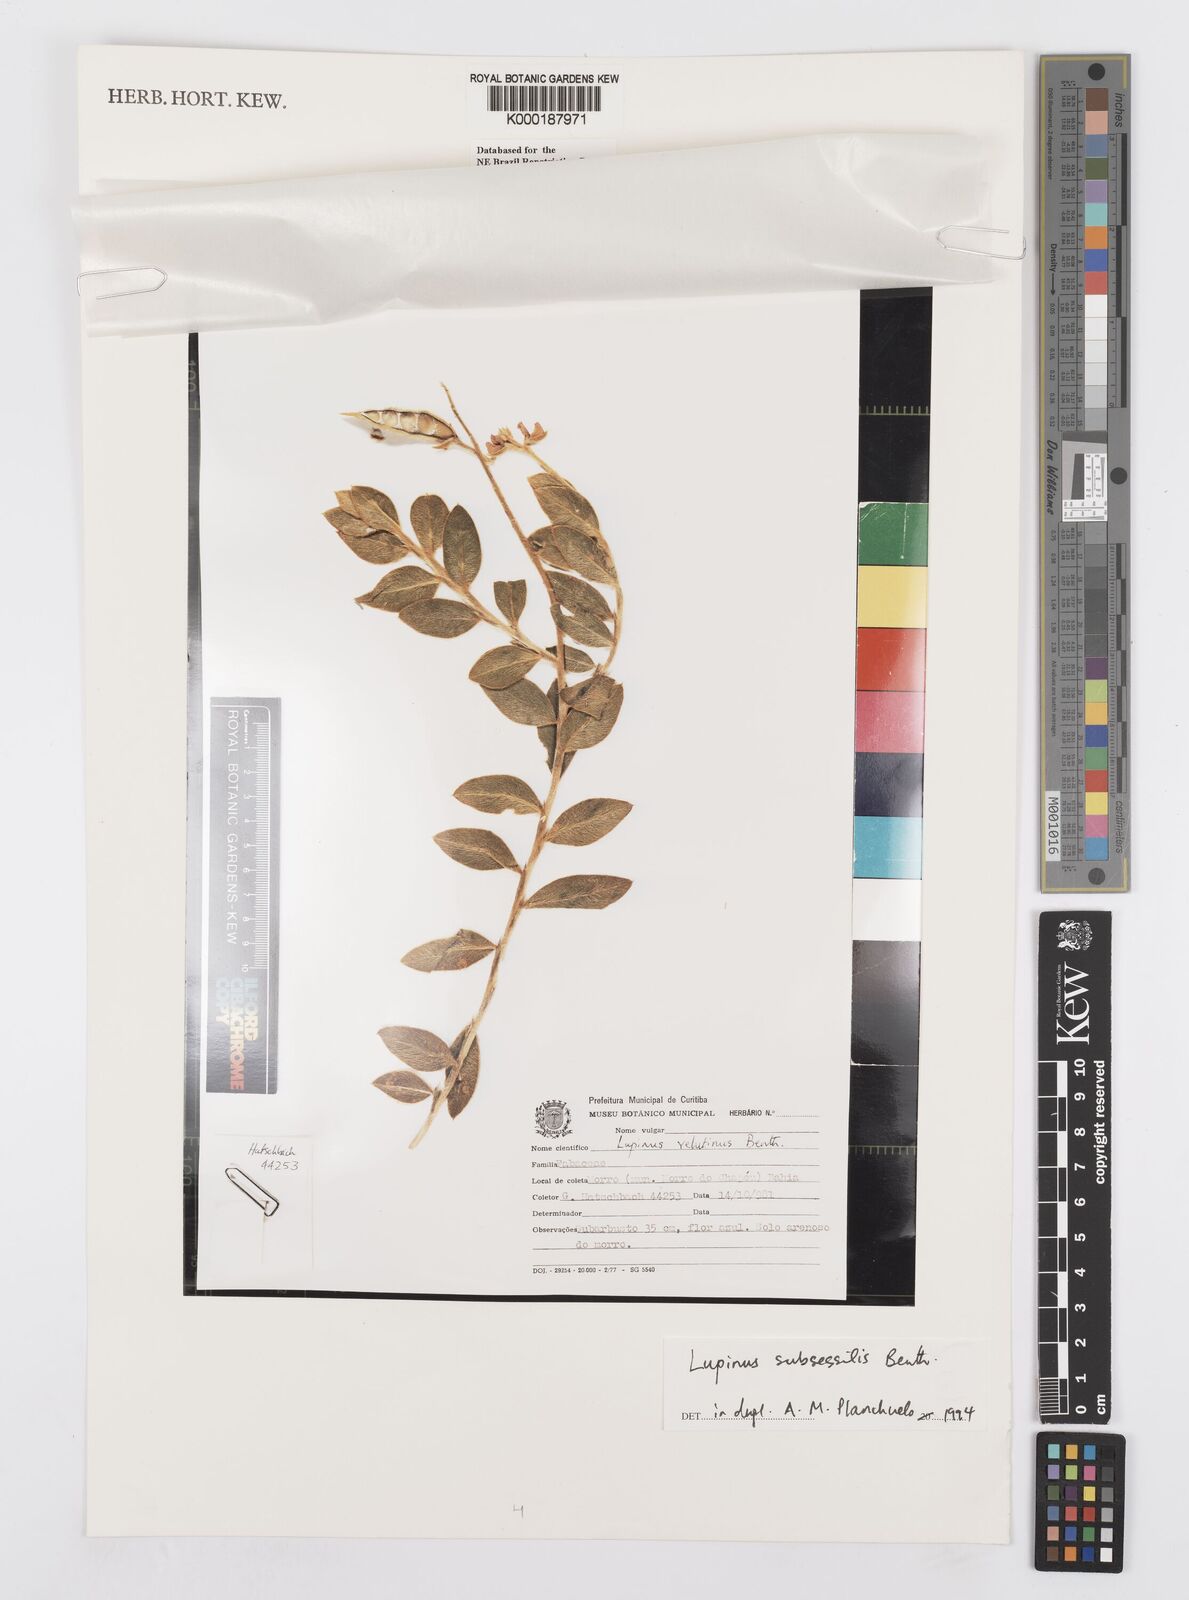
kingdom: Plantae
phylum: Tracheophyta
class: Magnoliopsida
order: Fabales
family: Fabaceae
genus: Lupinus
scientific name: Lupinus subsessilis
